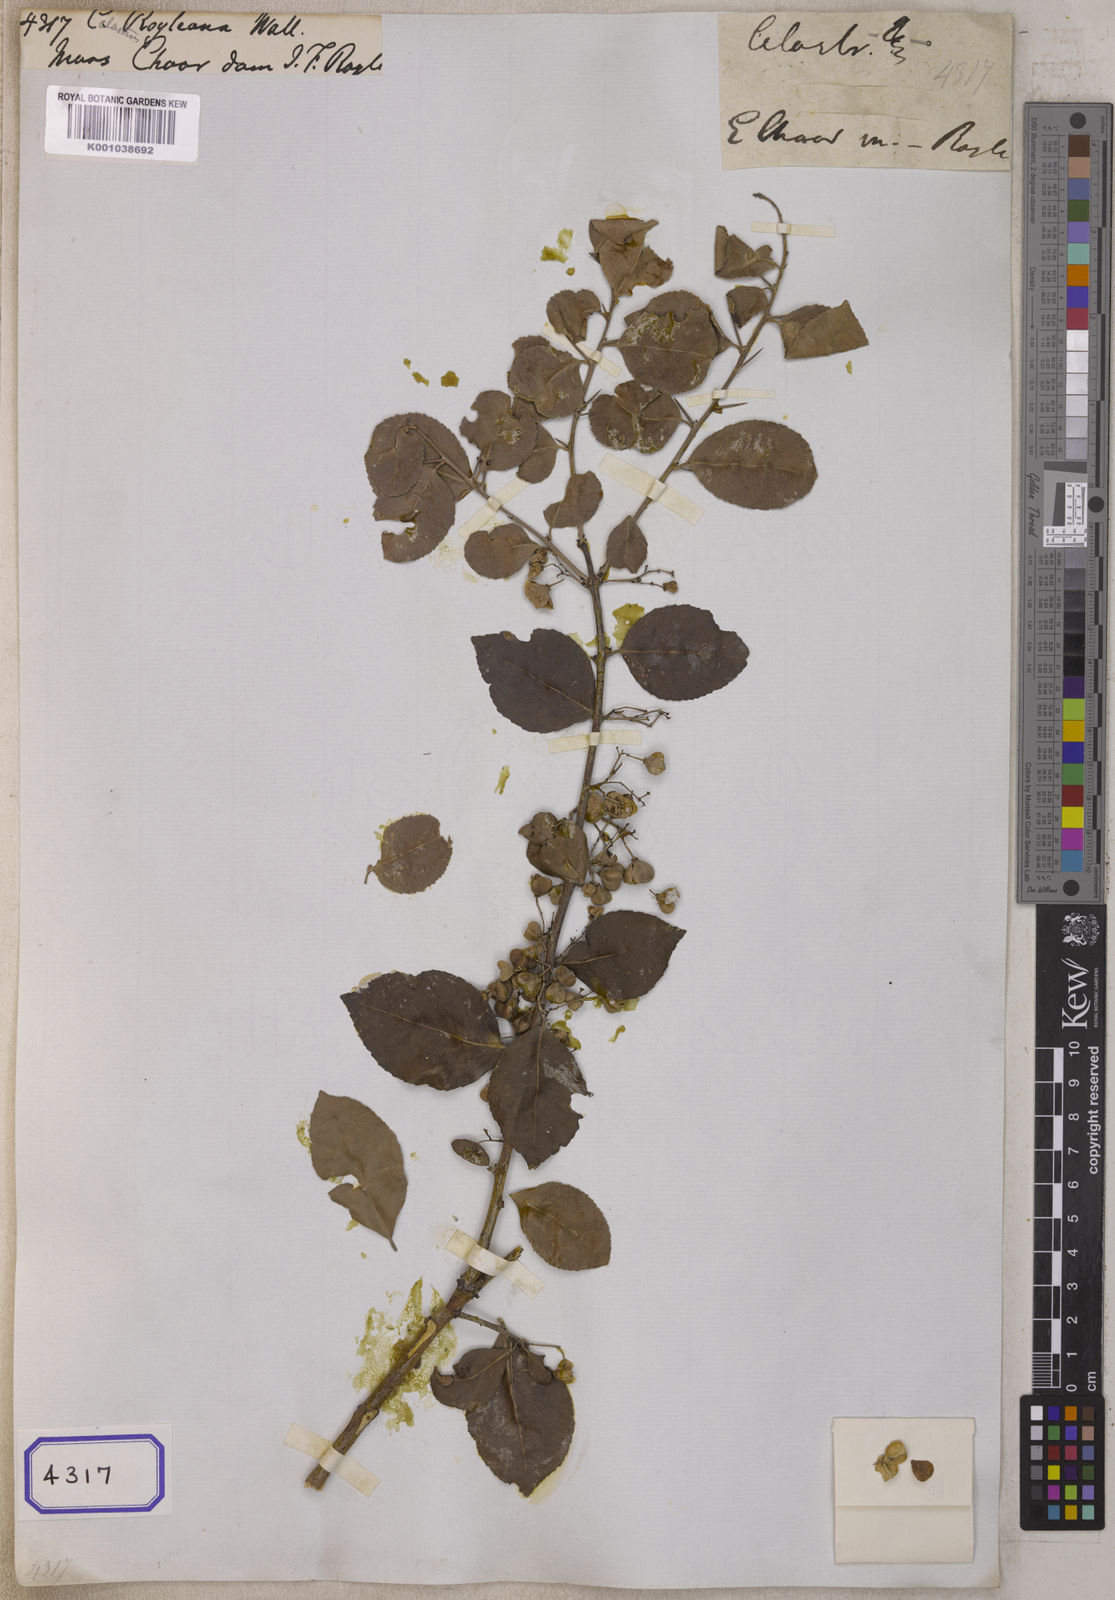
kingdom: Plantae
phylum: Tracheophyta
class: Magnoliopsida
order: Celastrales
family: Celastraceae
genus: Celastrus
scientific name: Celastrus
